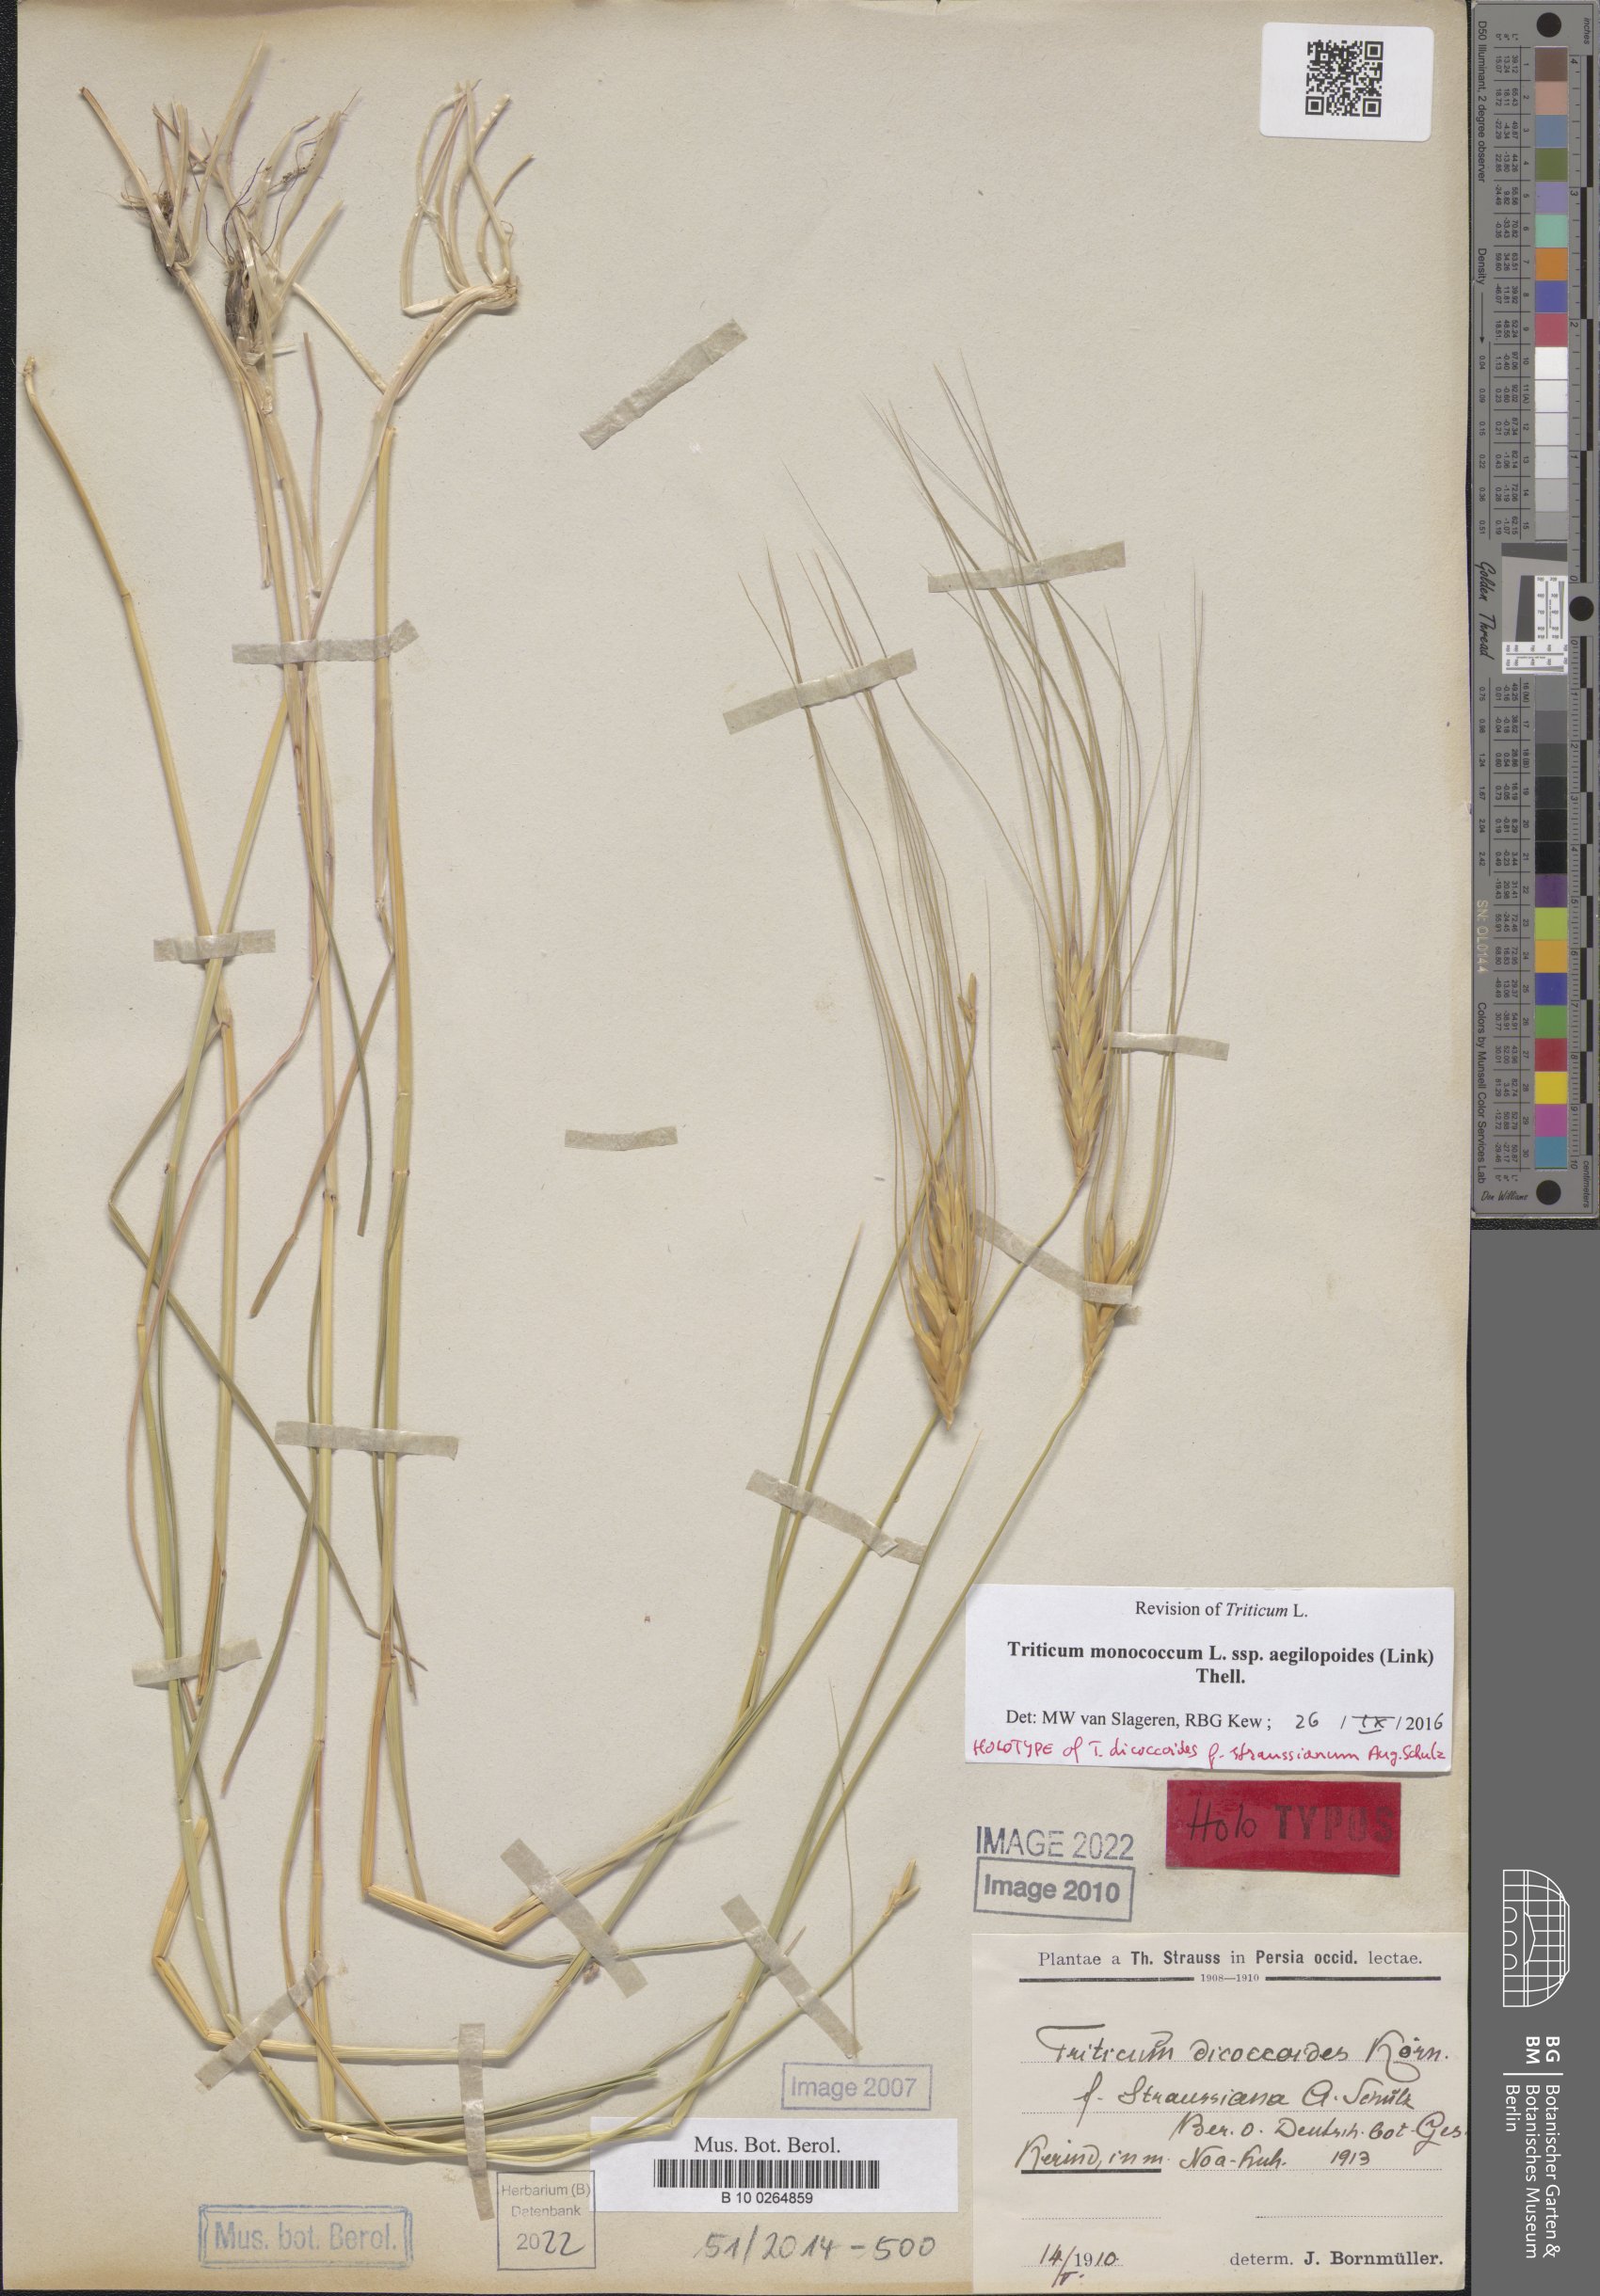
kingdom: Plantae
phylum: Tracheophyta
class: Liliopsida
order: Poales
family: Poaceae
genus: Triticum
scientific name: Triticum monococcum
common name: Einkorn
